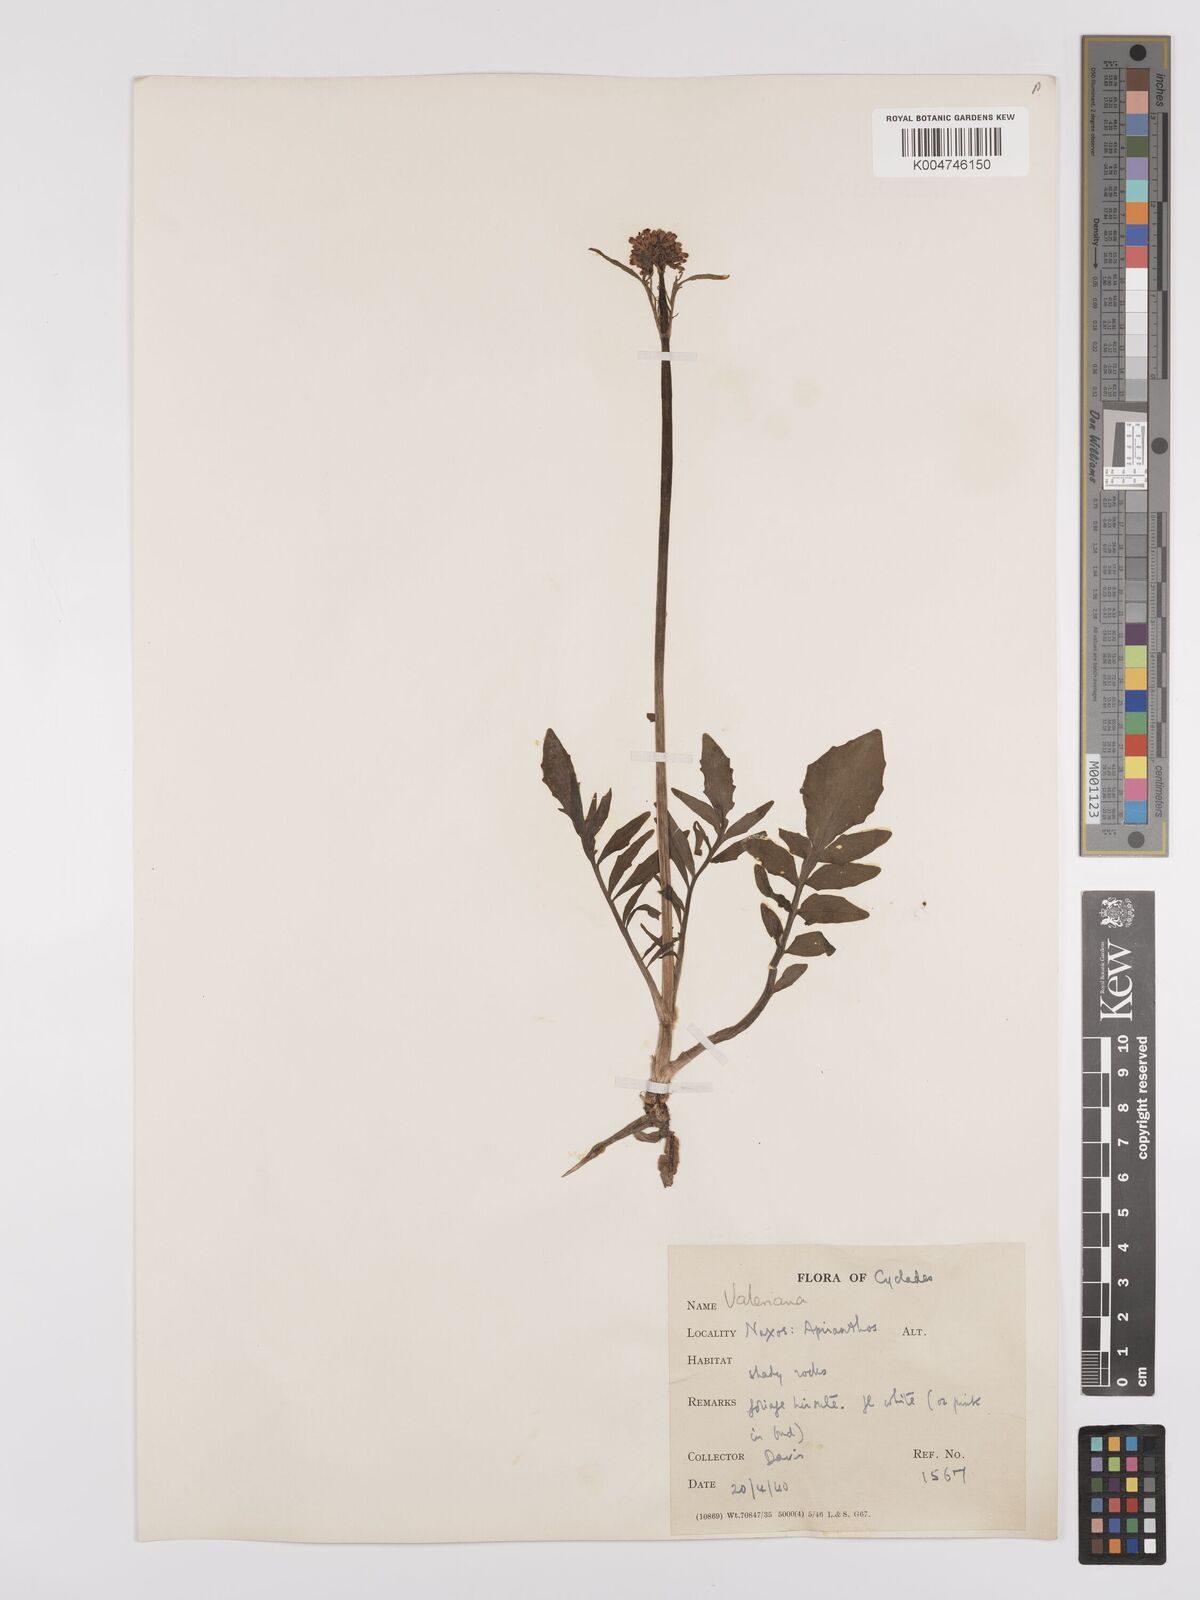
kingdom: Plantae
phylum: Tracheophyta
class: Magnoliopsida
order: Dipsacales
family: Caprifoliaceae
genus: Valeriana
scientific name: Valeriana dioscoridis
